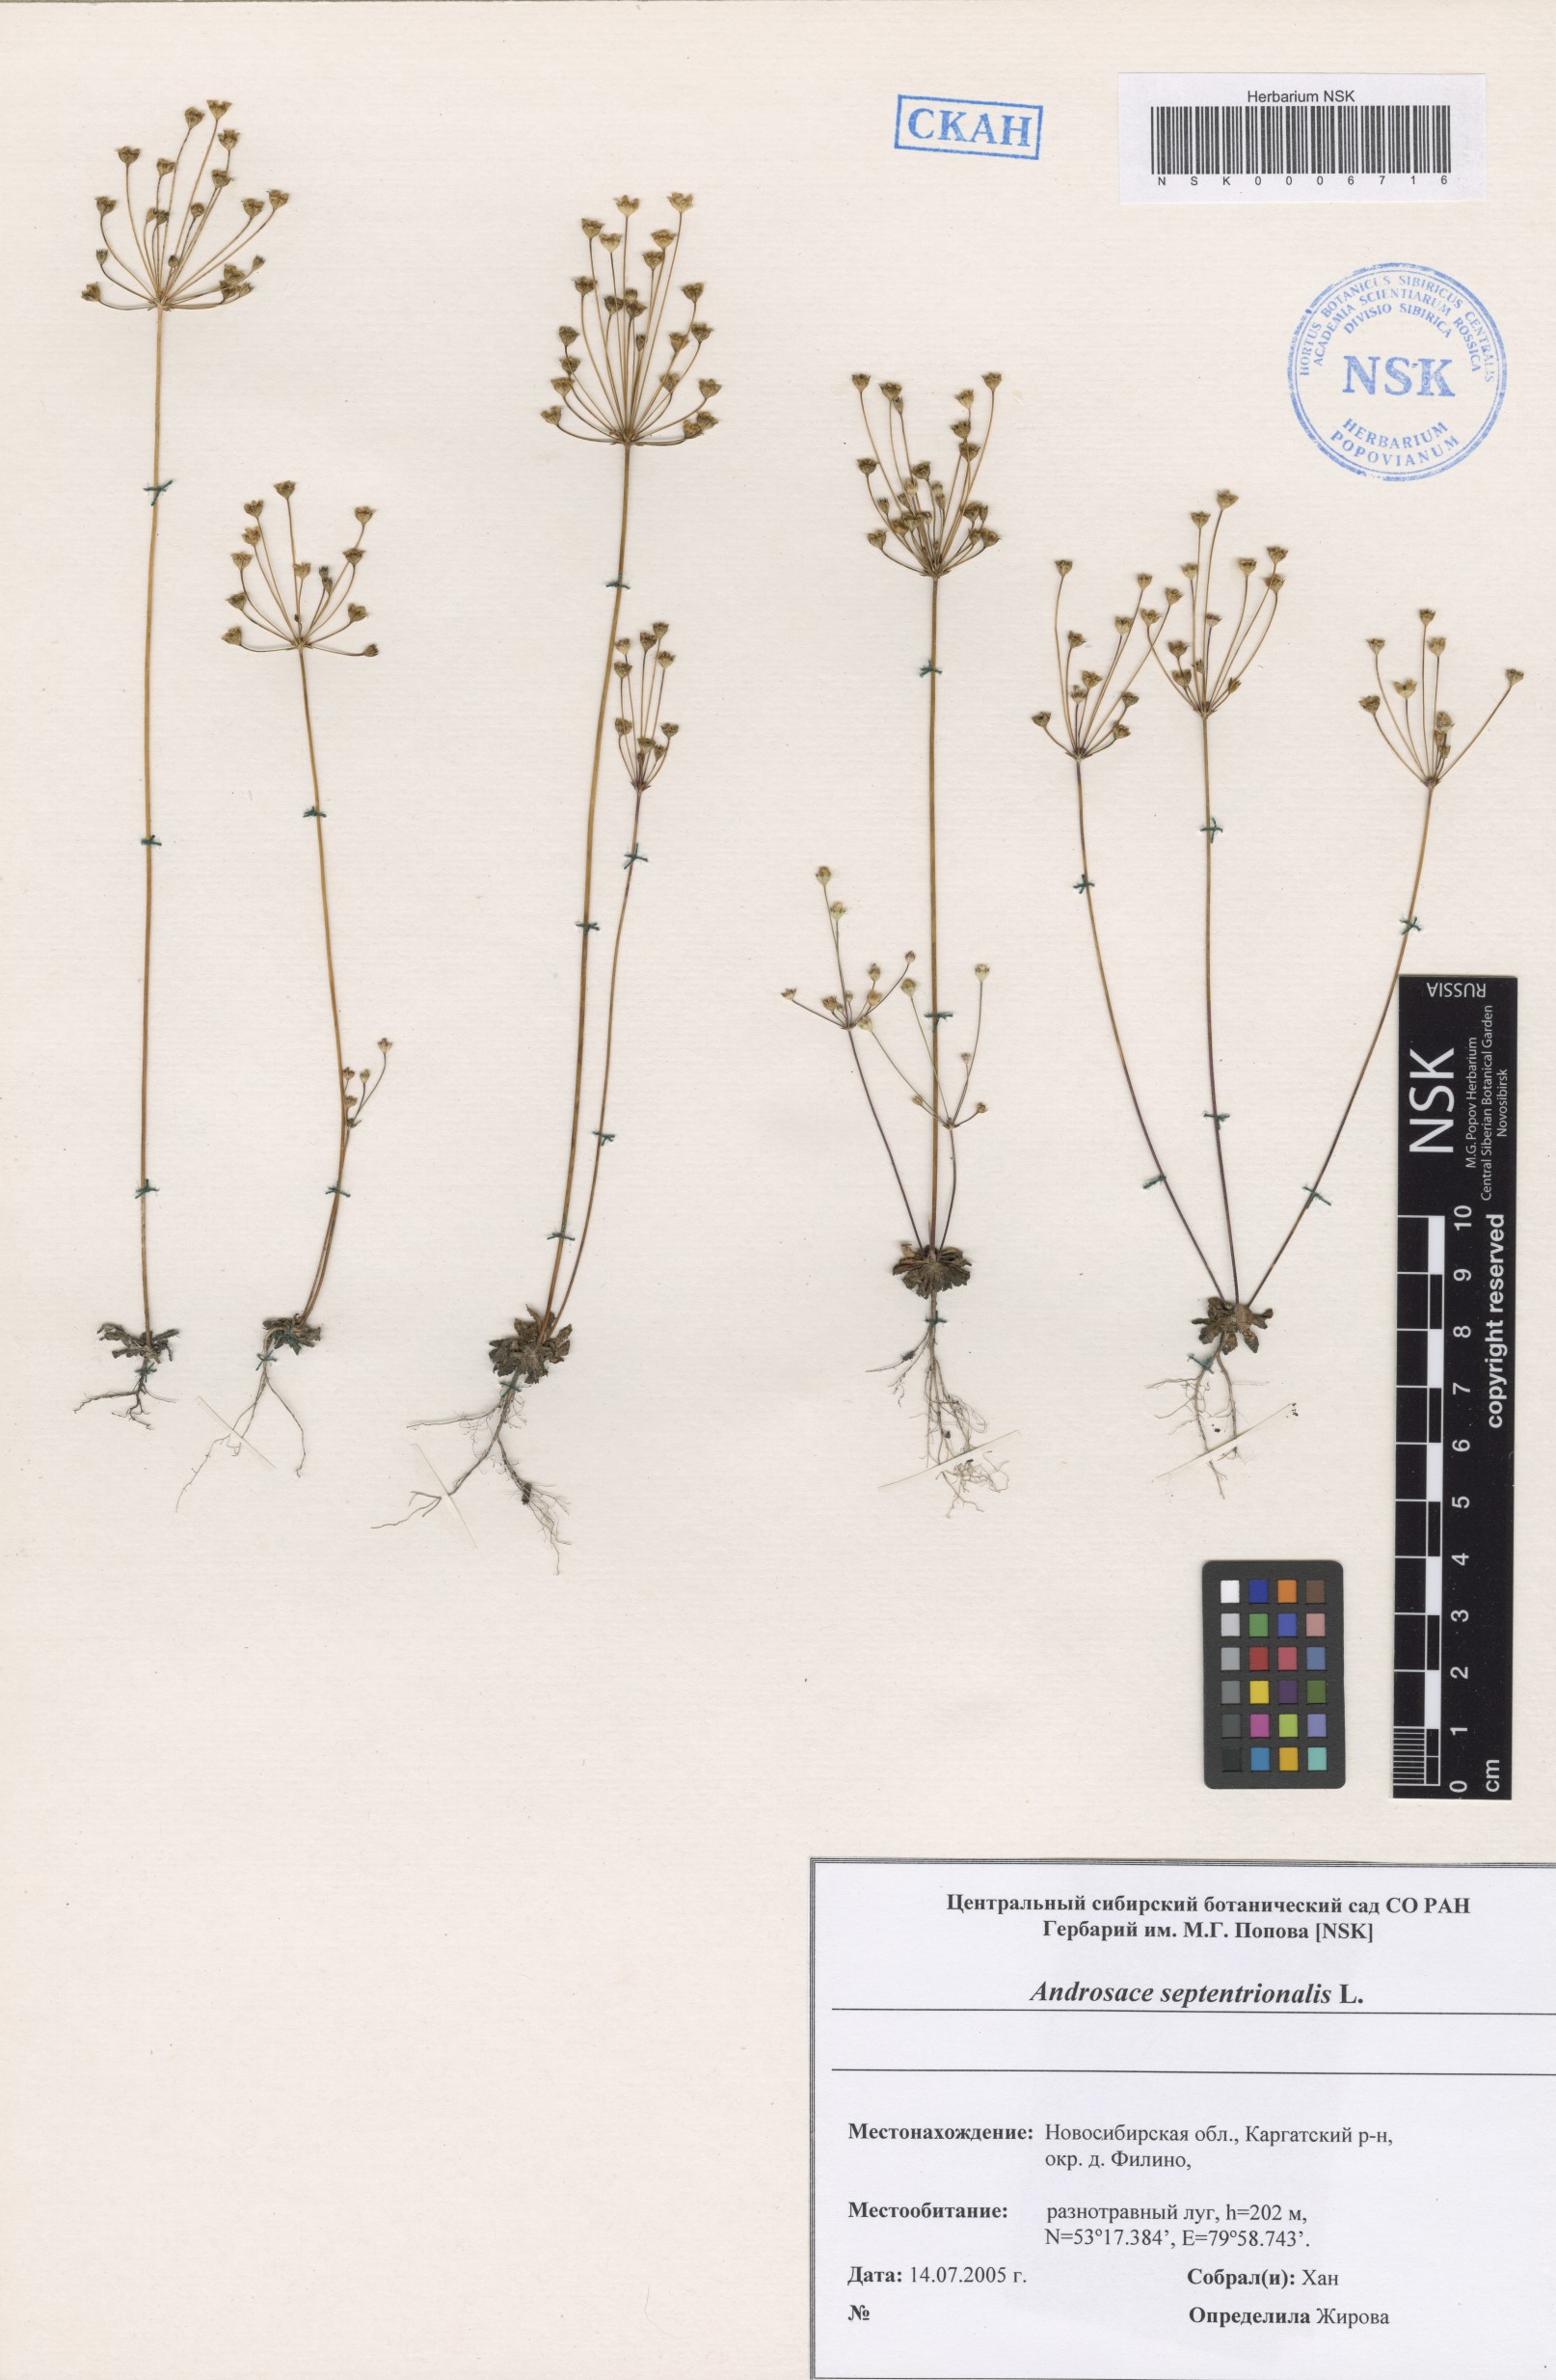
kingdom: Plantae
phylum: Tracheophyta
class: Magnoliopsida
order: Ericales
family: Primulaceae
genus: Androsace
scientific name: Androsace septentrionalis
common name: Hairy northern fairy-candelabra
